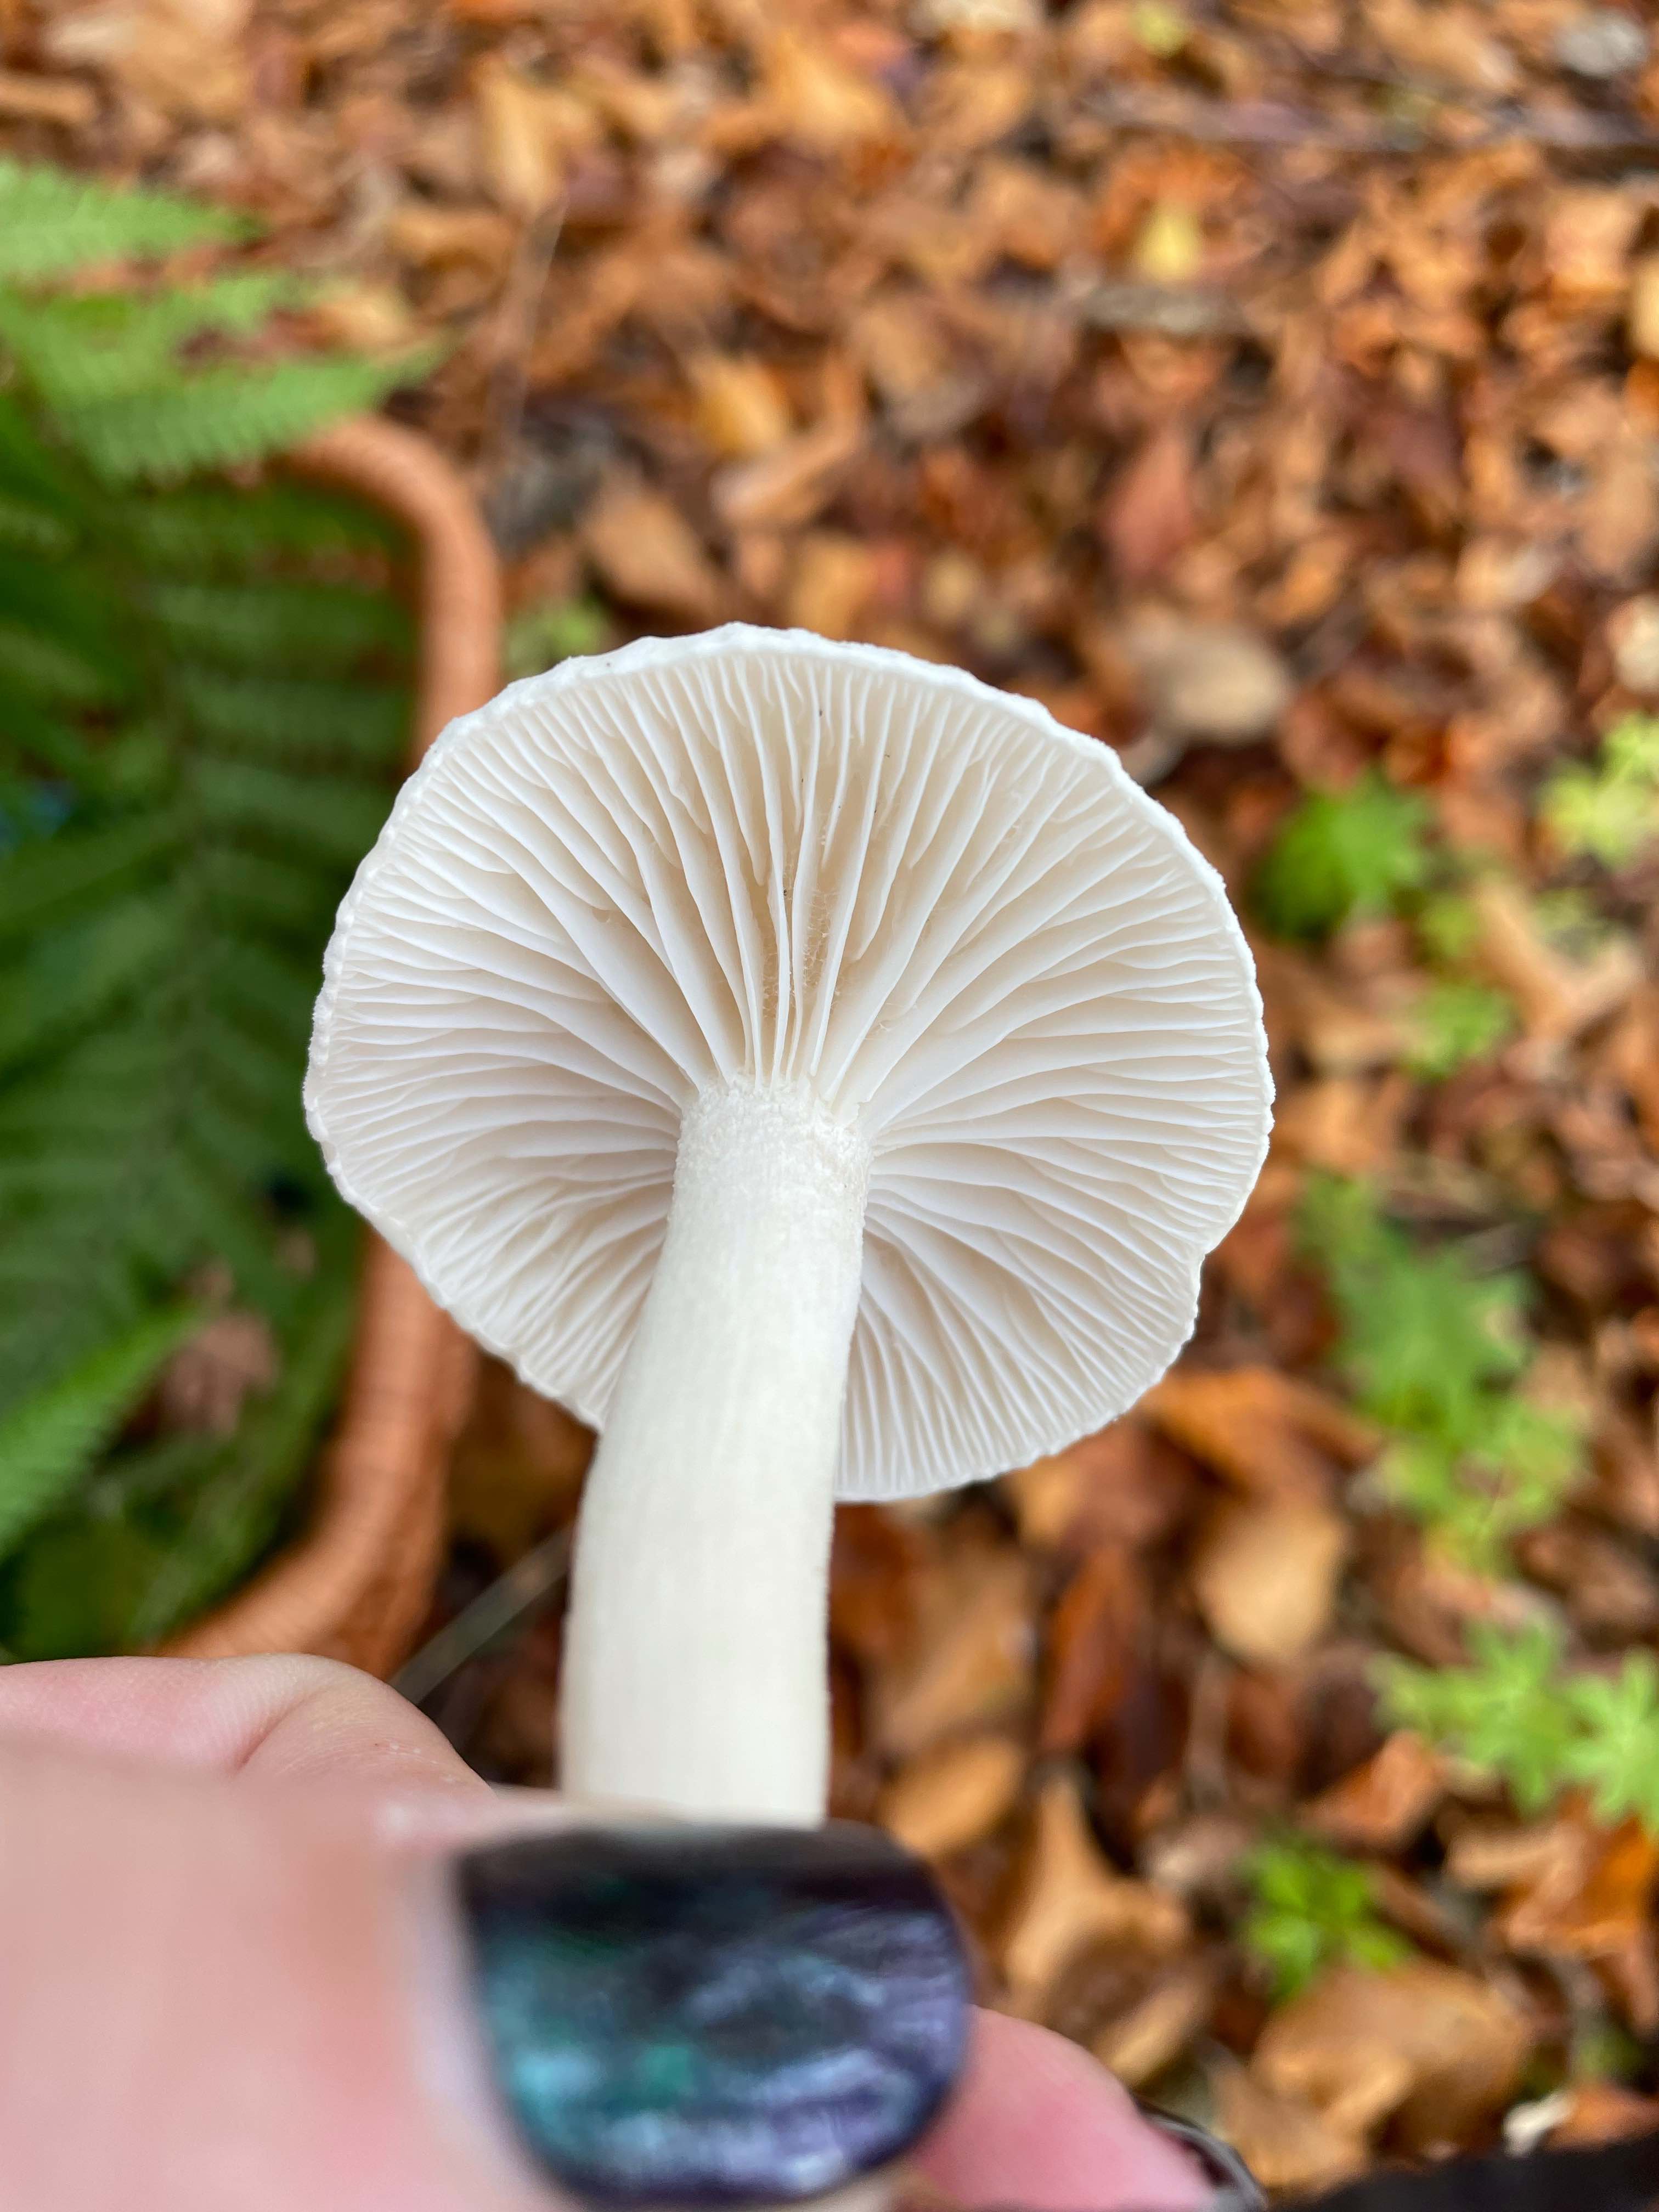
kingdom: Fungi
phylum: Basidiomycota
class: Agaricomycetes
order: Agaricales
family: Hygrophoraceae
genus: Hygrophorus
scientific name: Hygrophorus
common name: sneglehat
